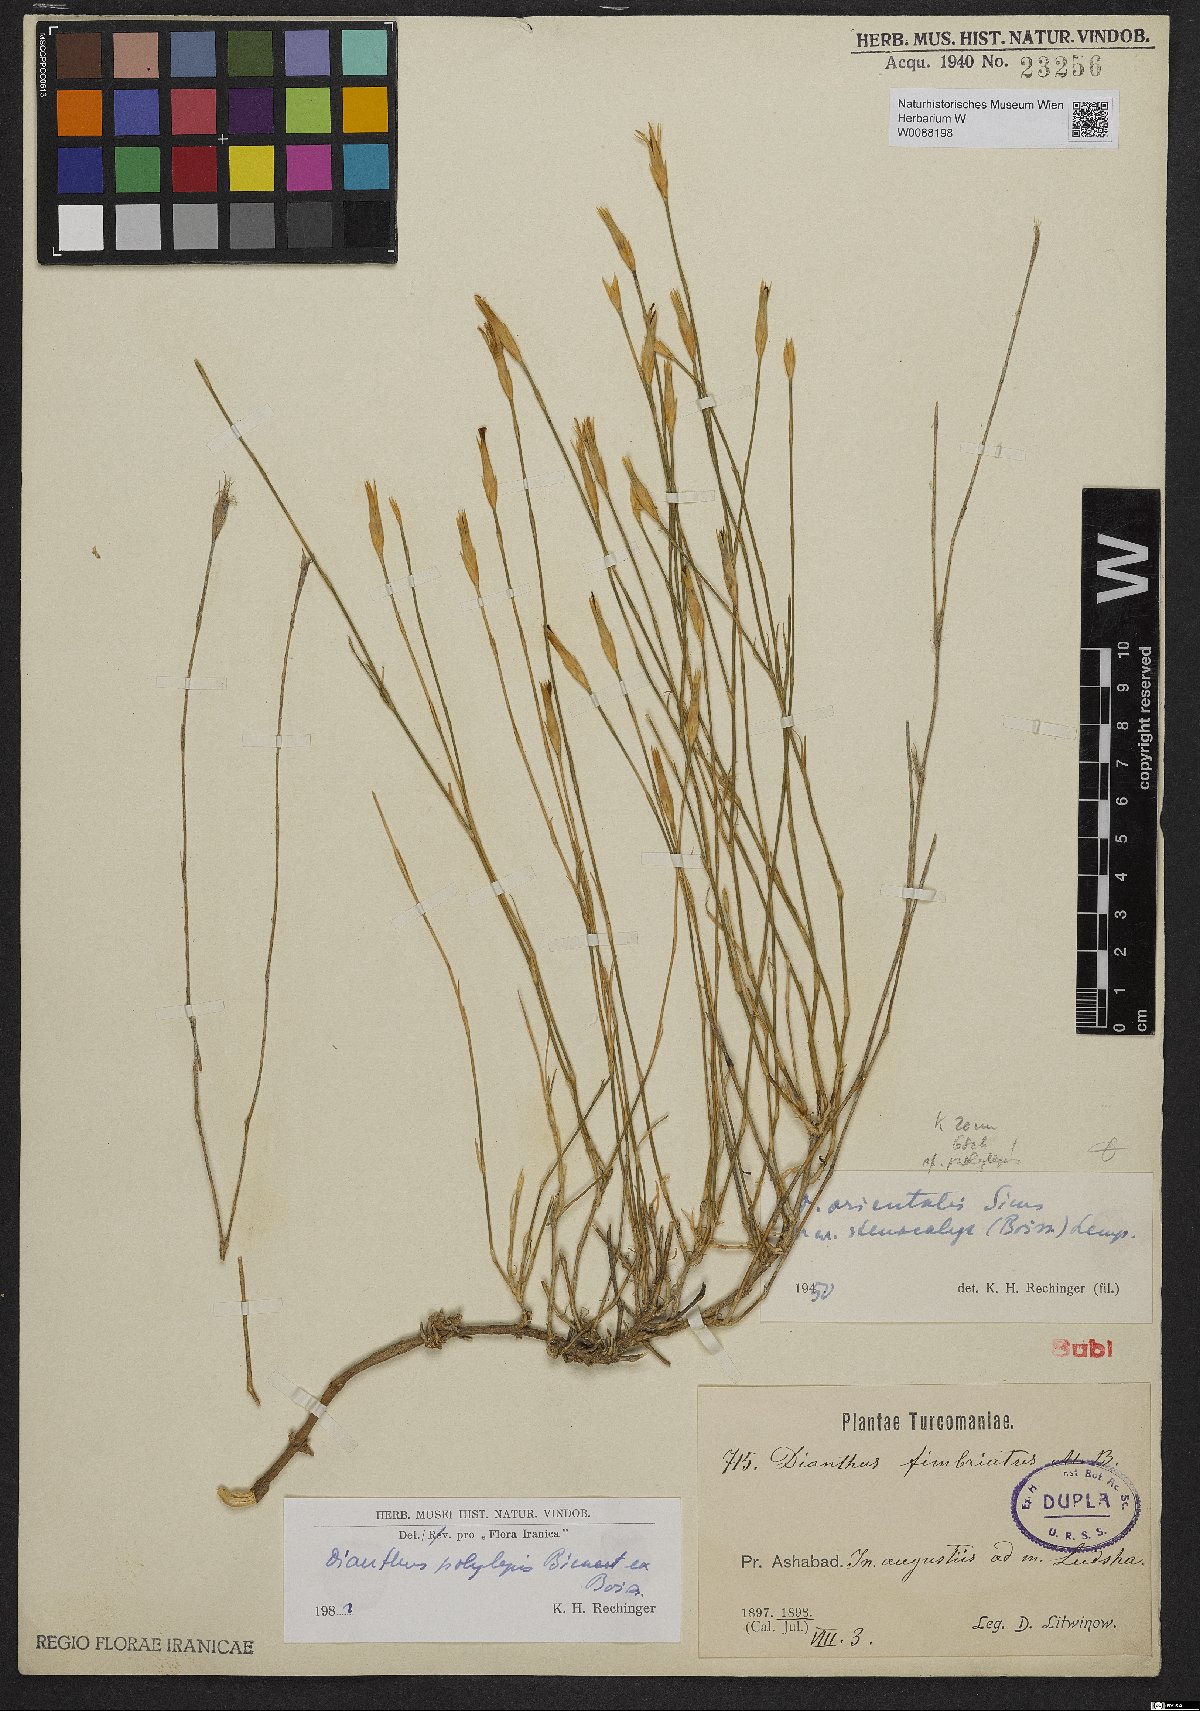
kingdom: Plantae
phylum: Tracheophyta
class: Magnoliopsida
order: Caryophyllales
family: Caryophyllaceae
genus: Dianthus
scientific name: Dianthus polylepis
